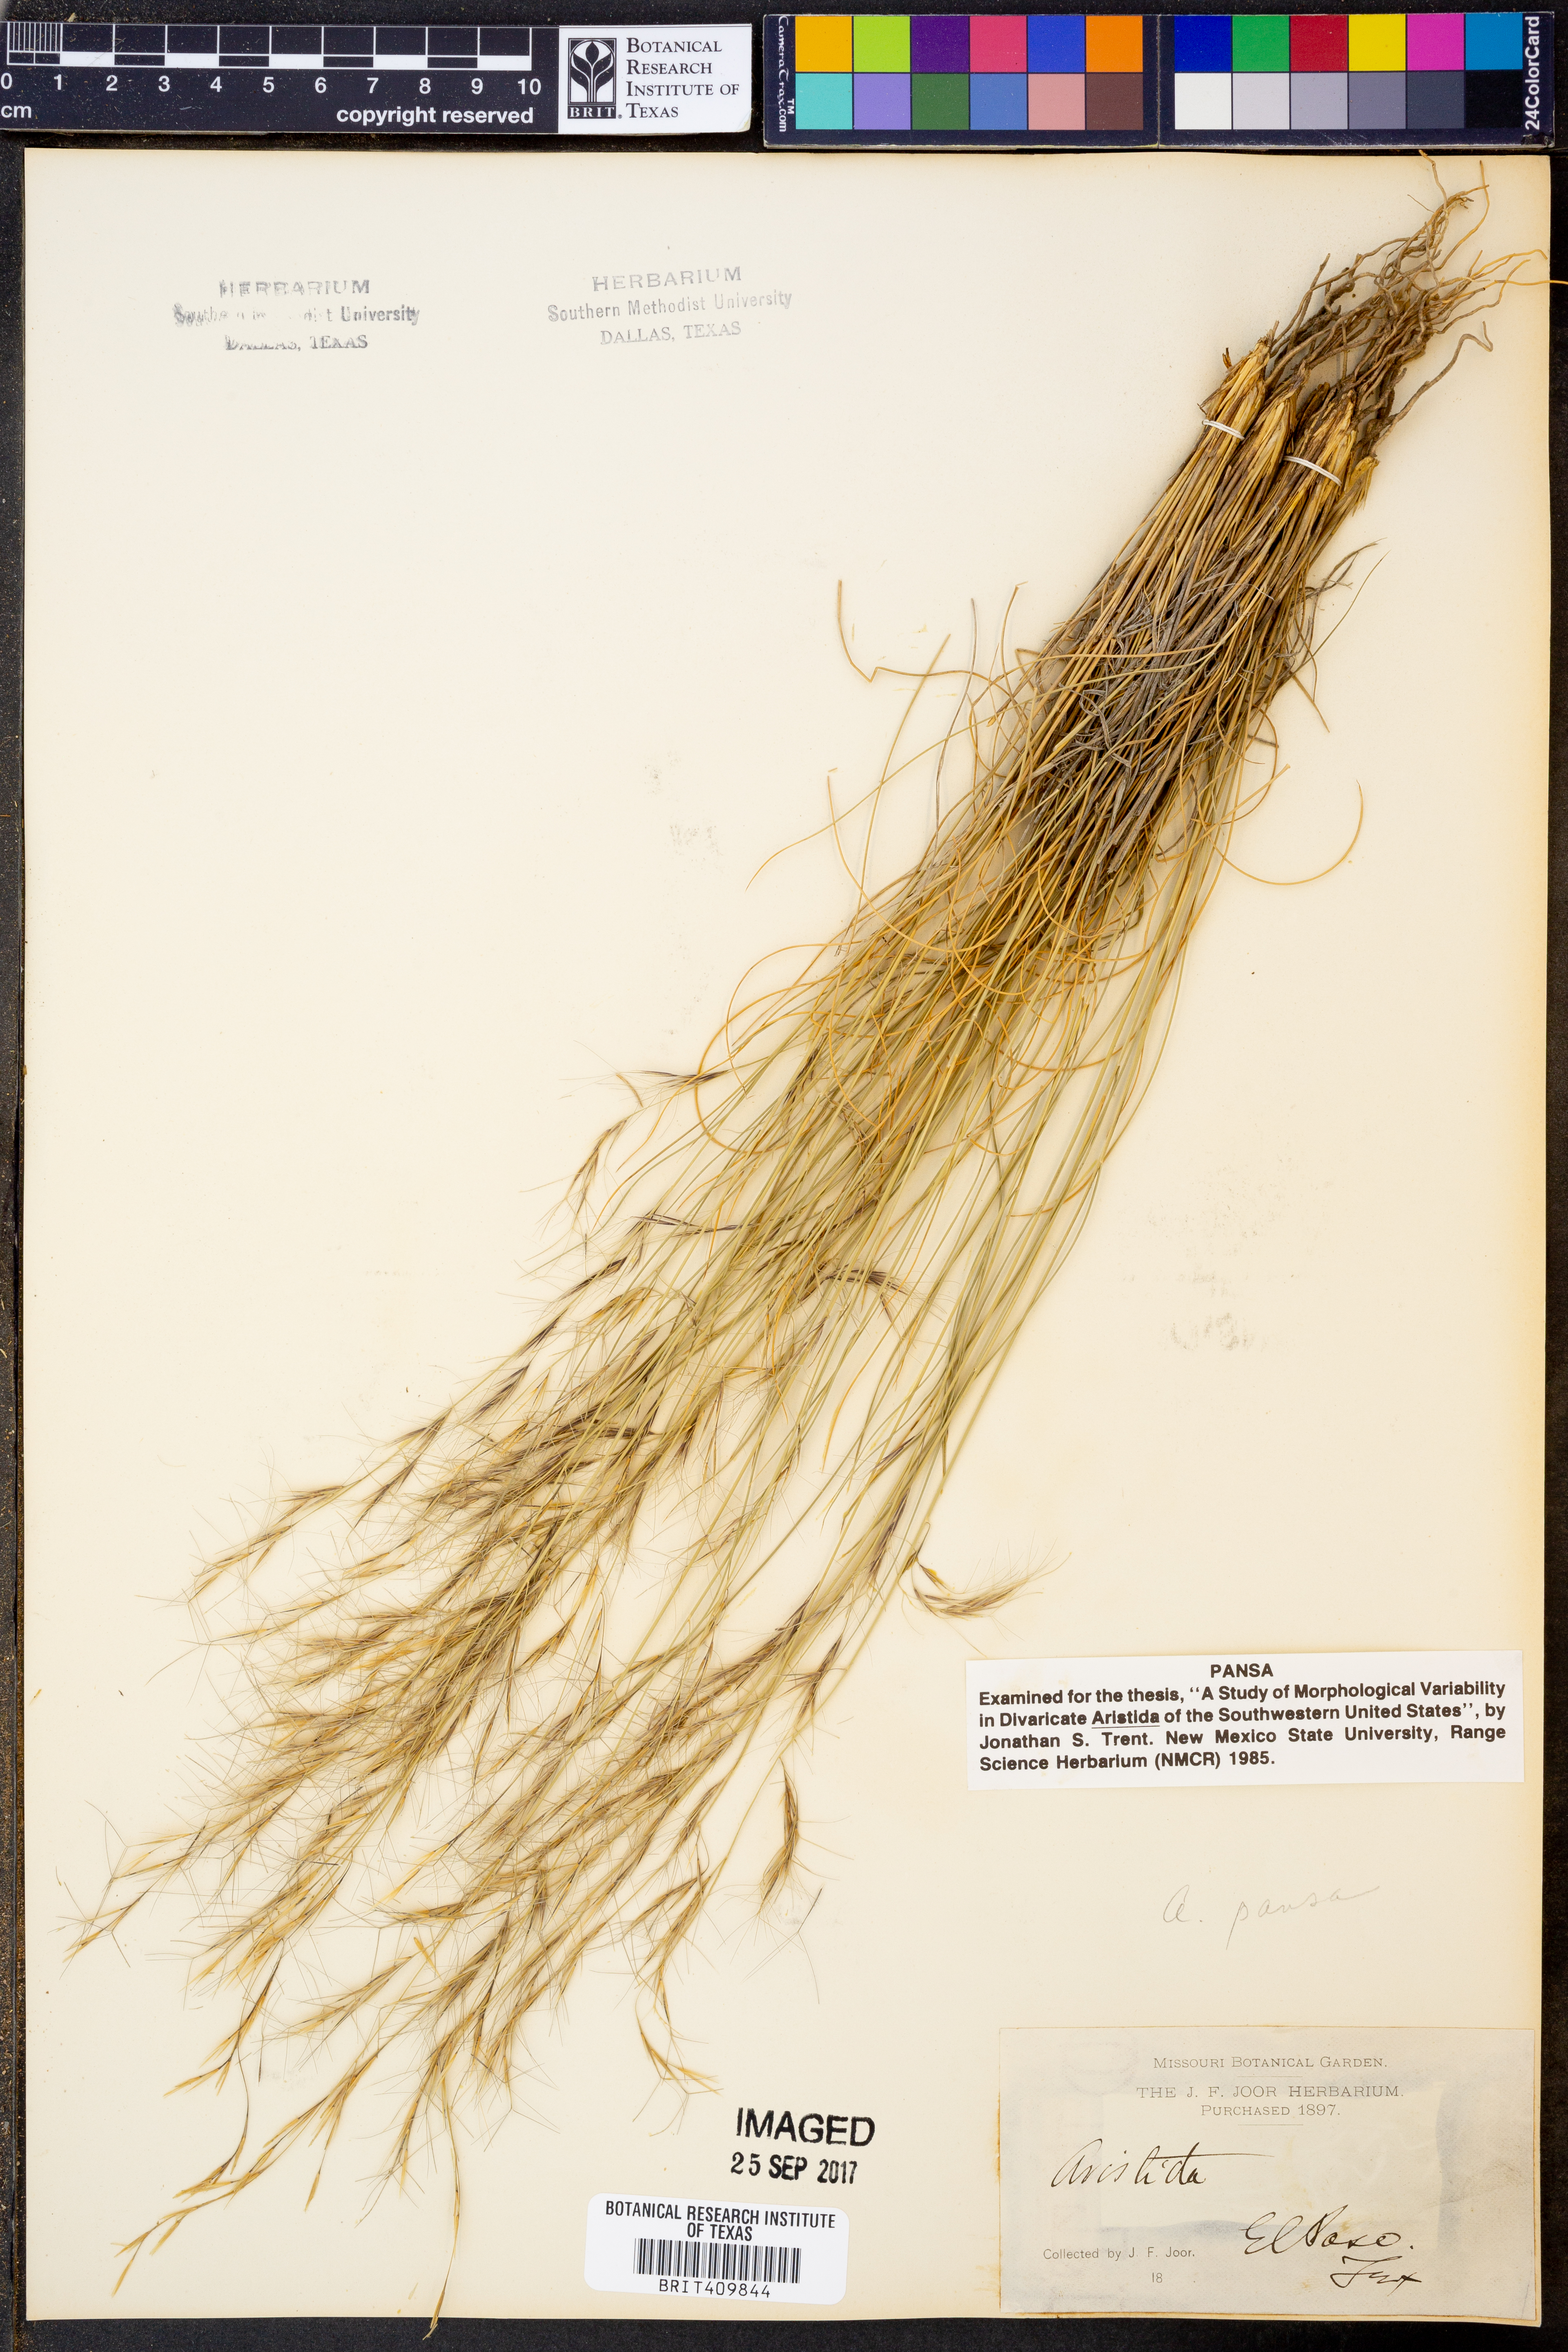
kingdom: Plantae
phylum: Tracheophyta
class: Liliopsida
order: Poales
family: Poaceae
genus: Aristida
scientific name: Aristida pansa
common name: Wooton's three-awn
